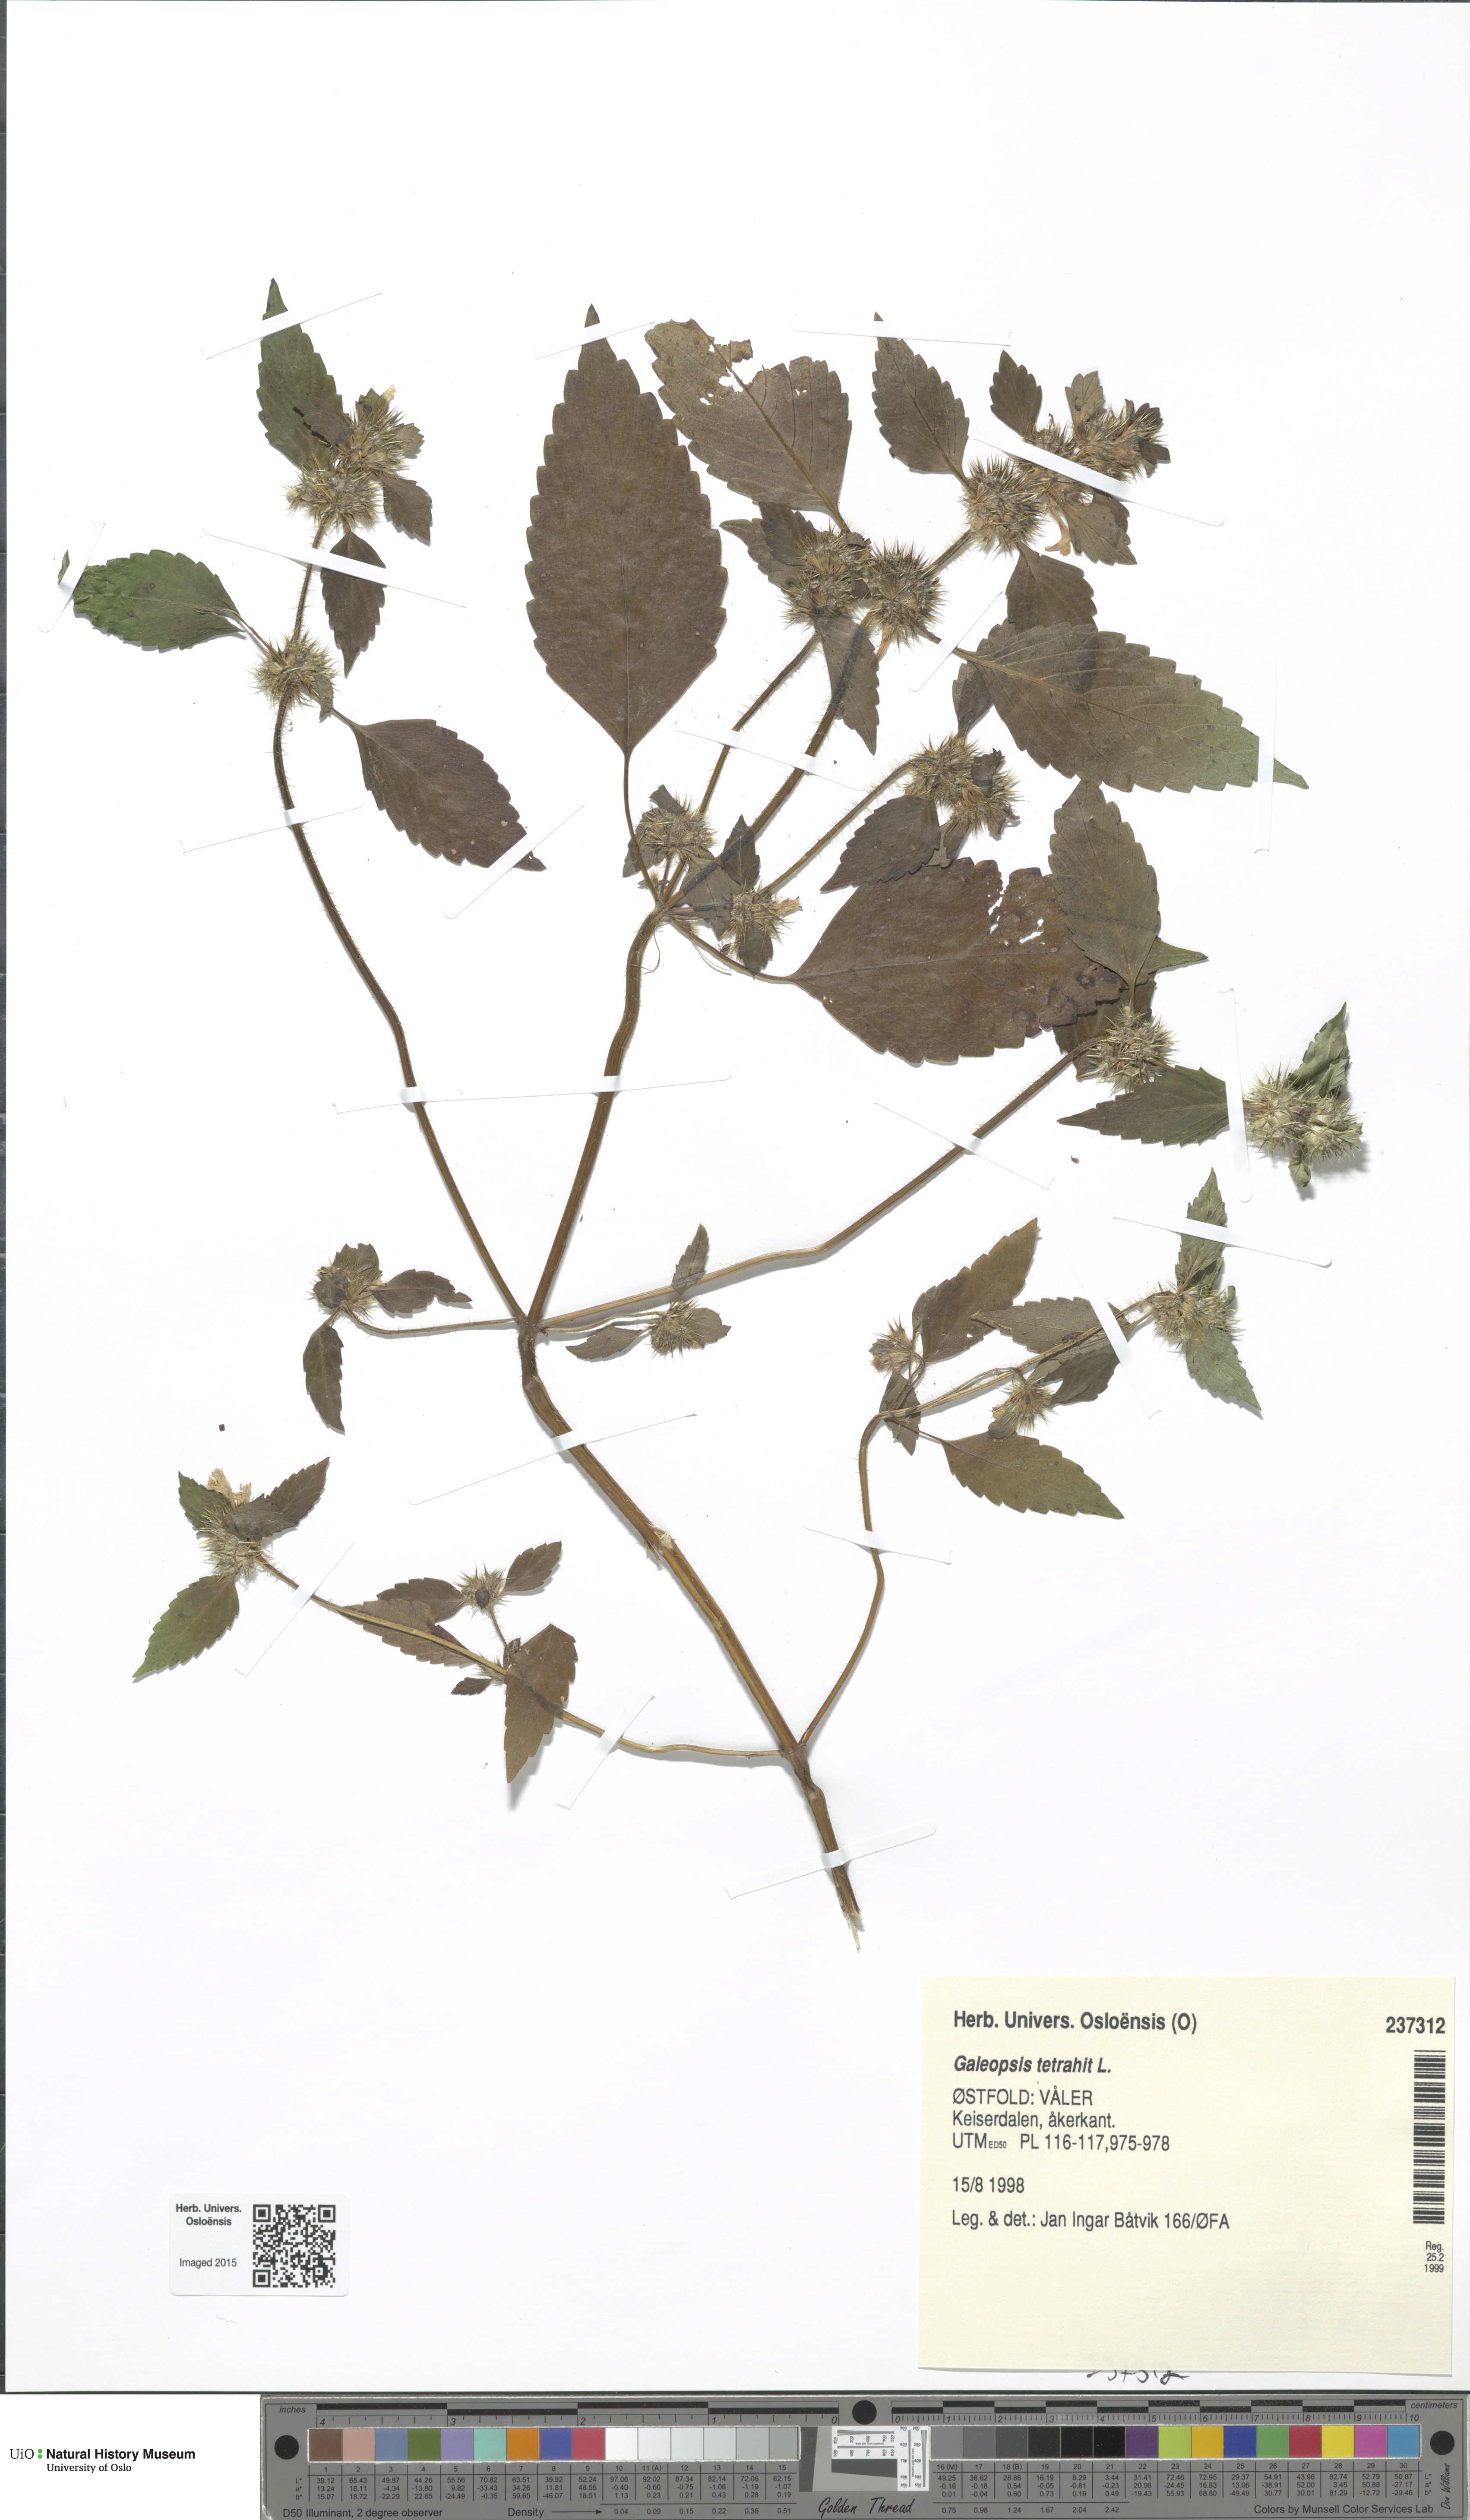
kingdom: Plantae
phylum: Tracheophyta
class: Magnoliopsida
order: Lamiales
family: Lamiaceae
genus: Galeopsis
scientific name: Galeopsis tetrahit
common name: Common hemp-nettle
